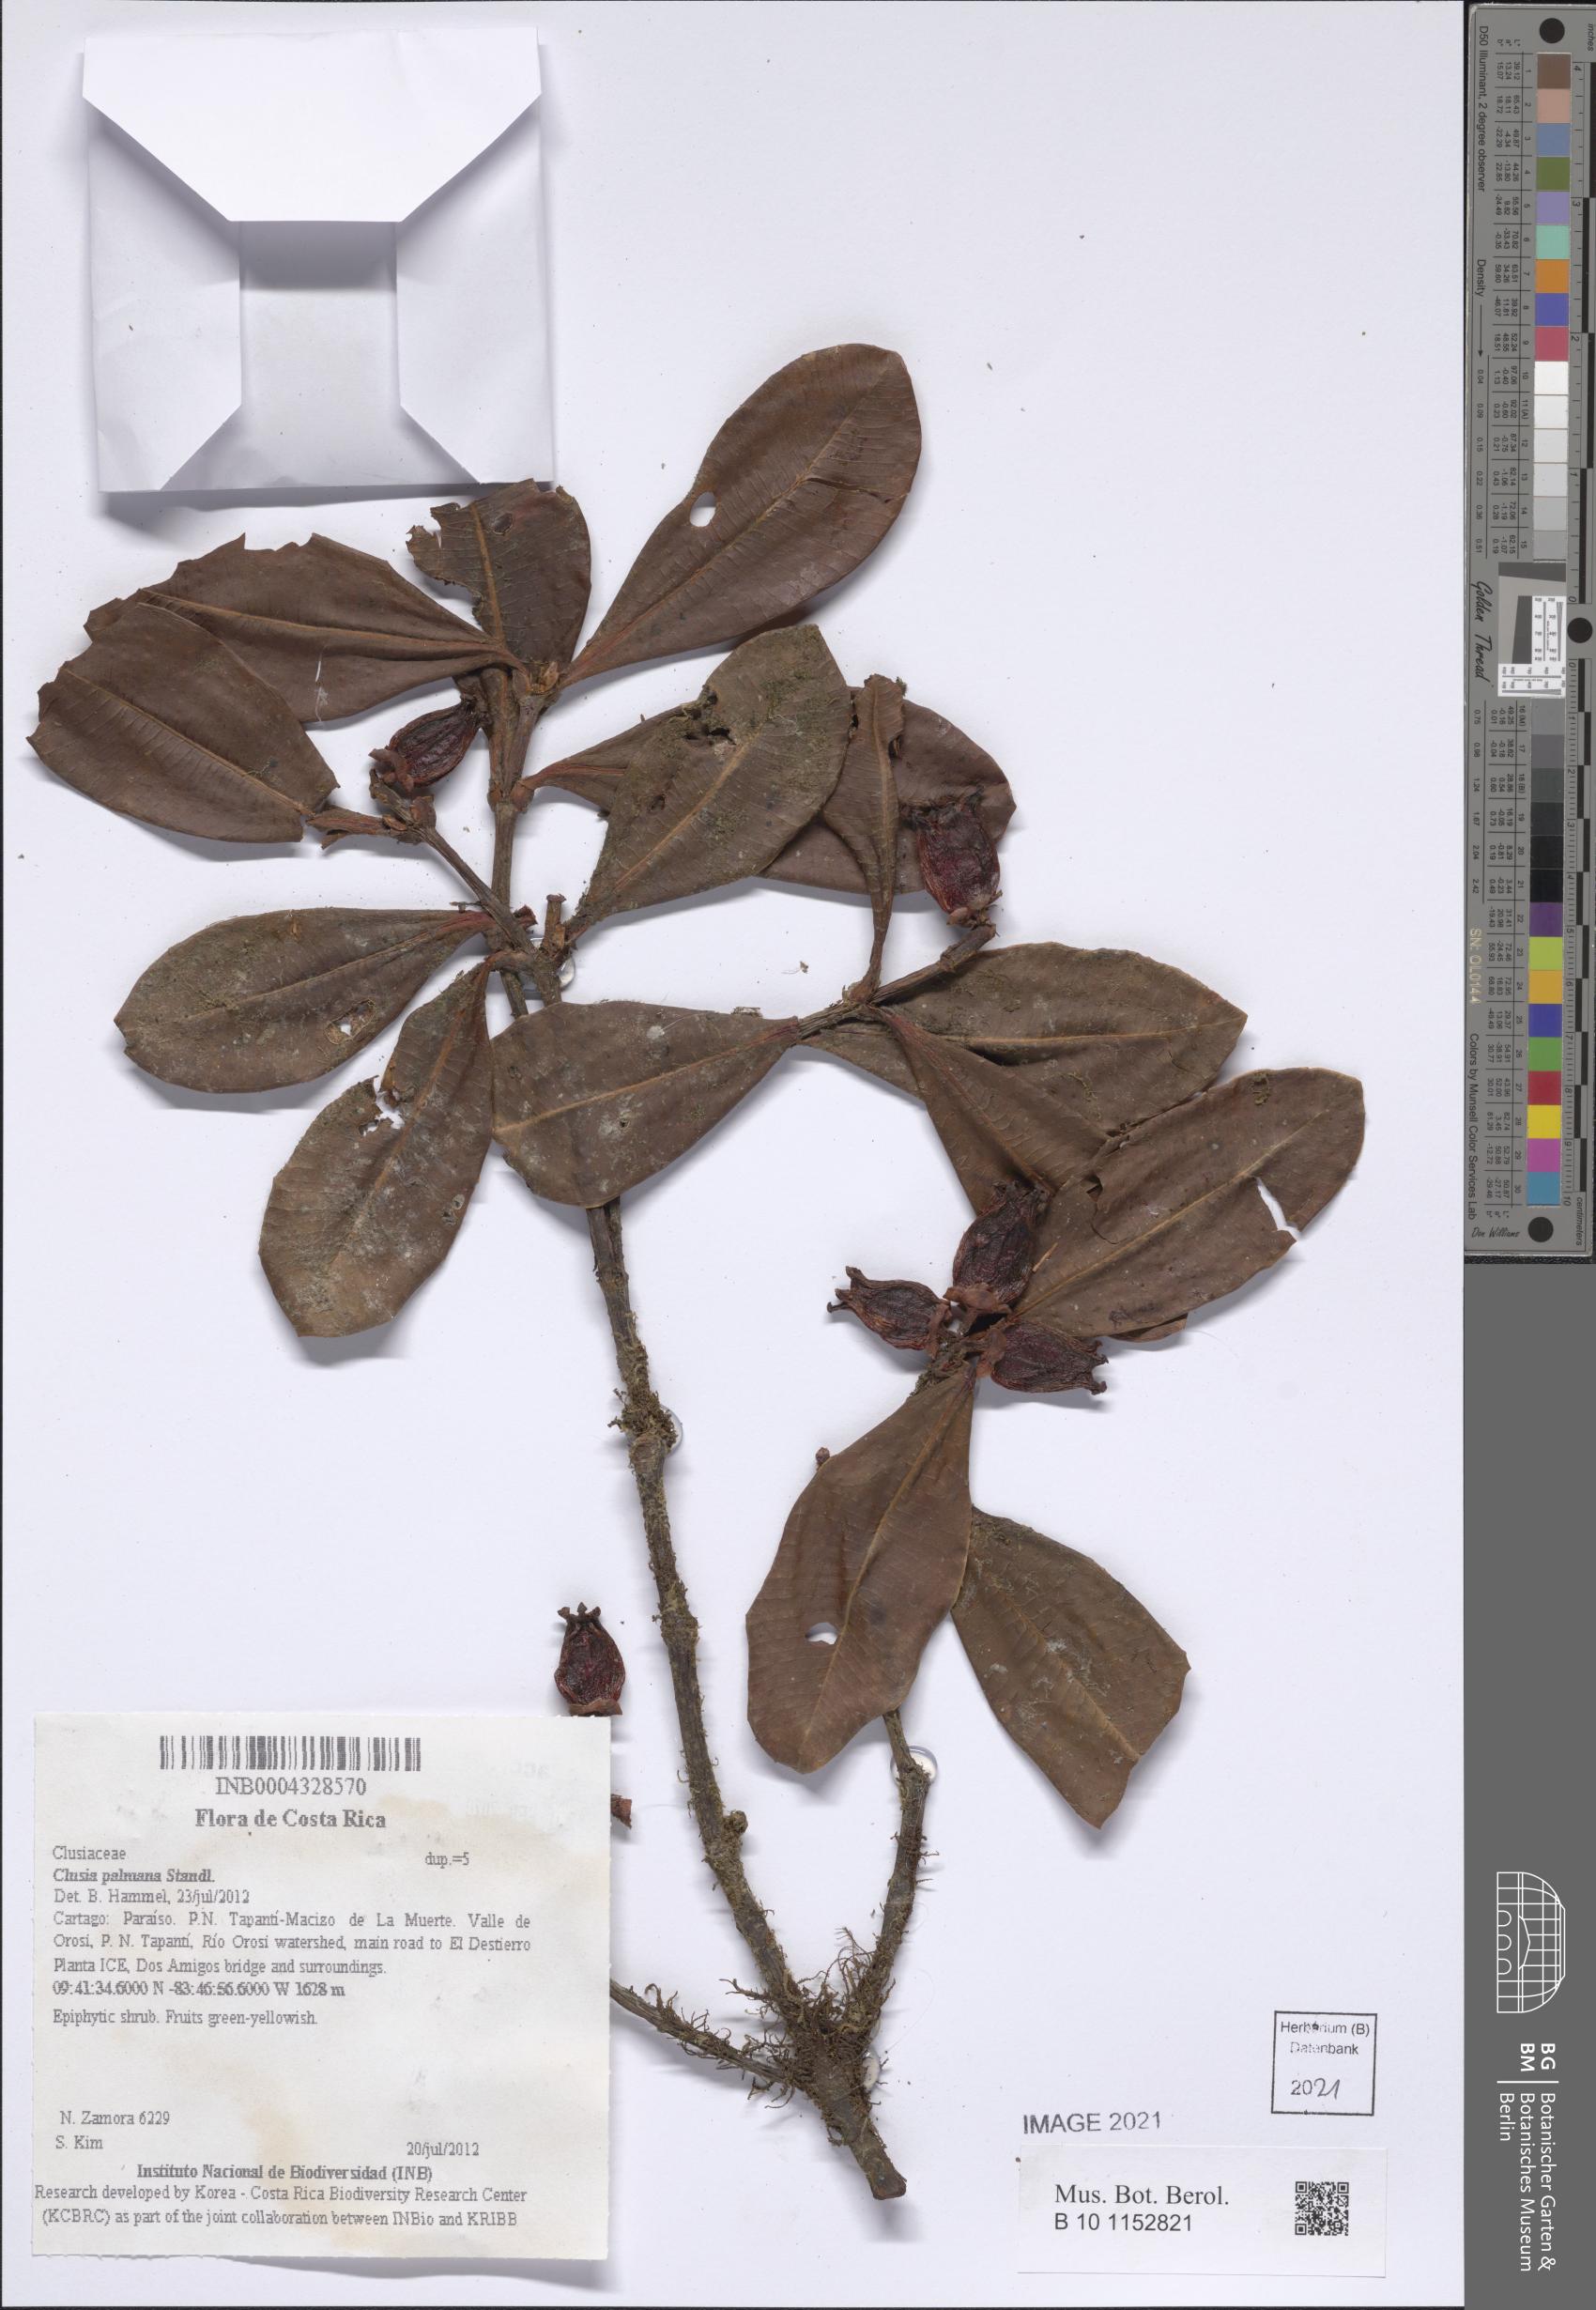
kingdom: Plantae
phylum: Tracheophyta
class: Magnoliopsida
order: Malpighiales
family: Clusiaceae
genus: Clusia
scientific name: Clusia palmana
